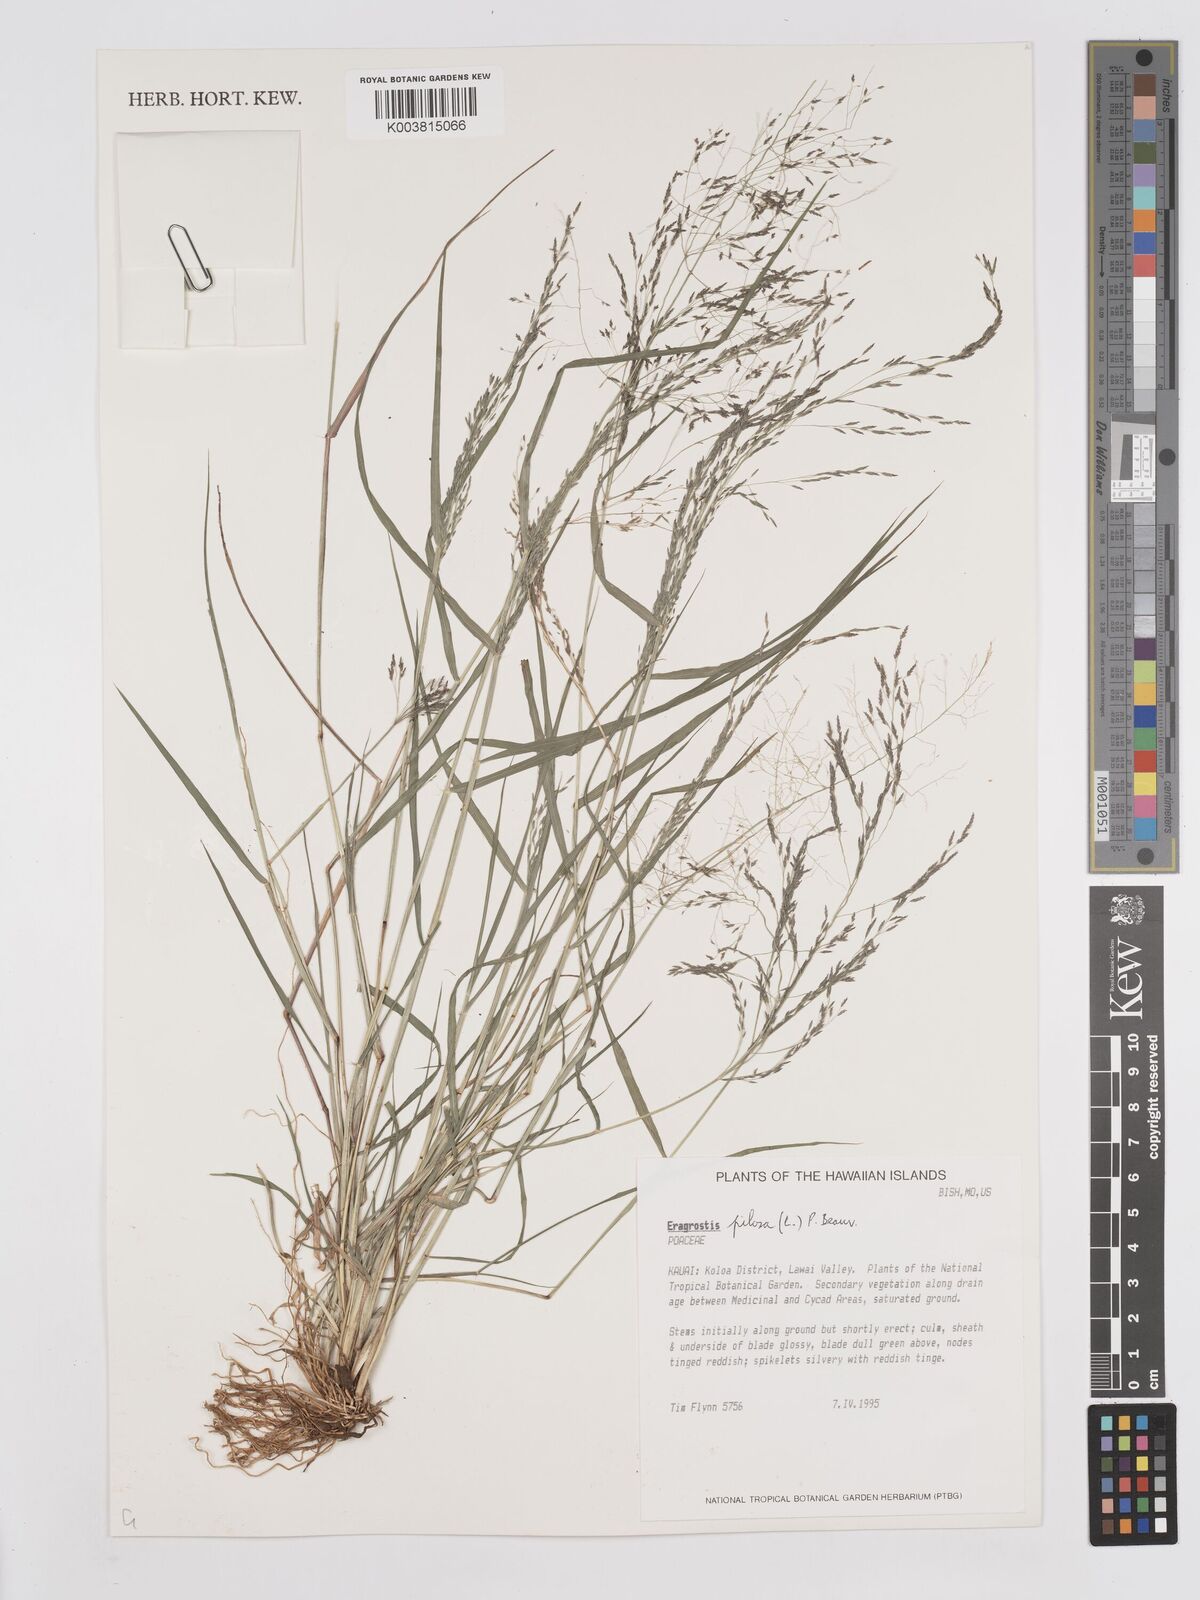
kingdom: Plantae
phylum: Tracheophyta
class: Liliopsida
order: Poales
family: Poaceae
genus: Eragrostis
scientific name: Eragrostis pilosa
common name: Indian lovegrass
